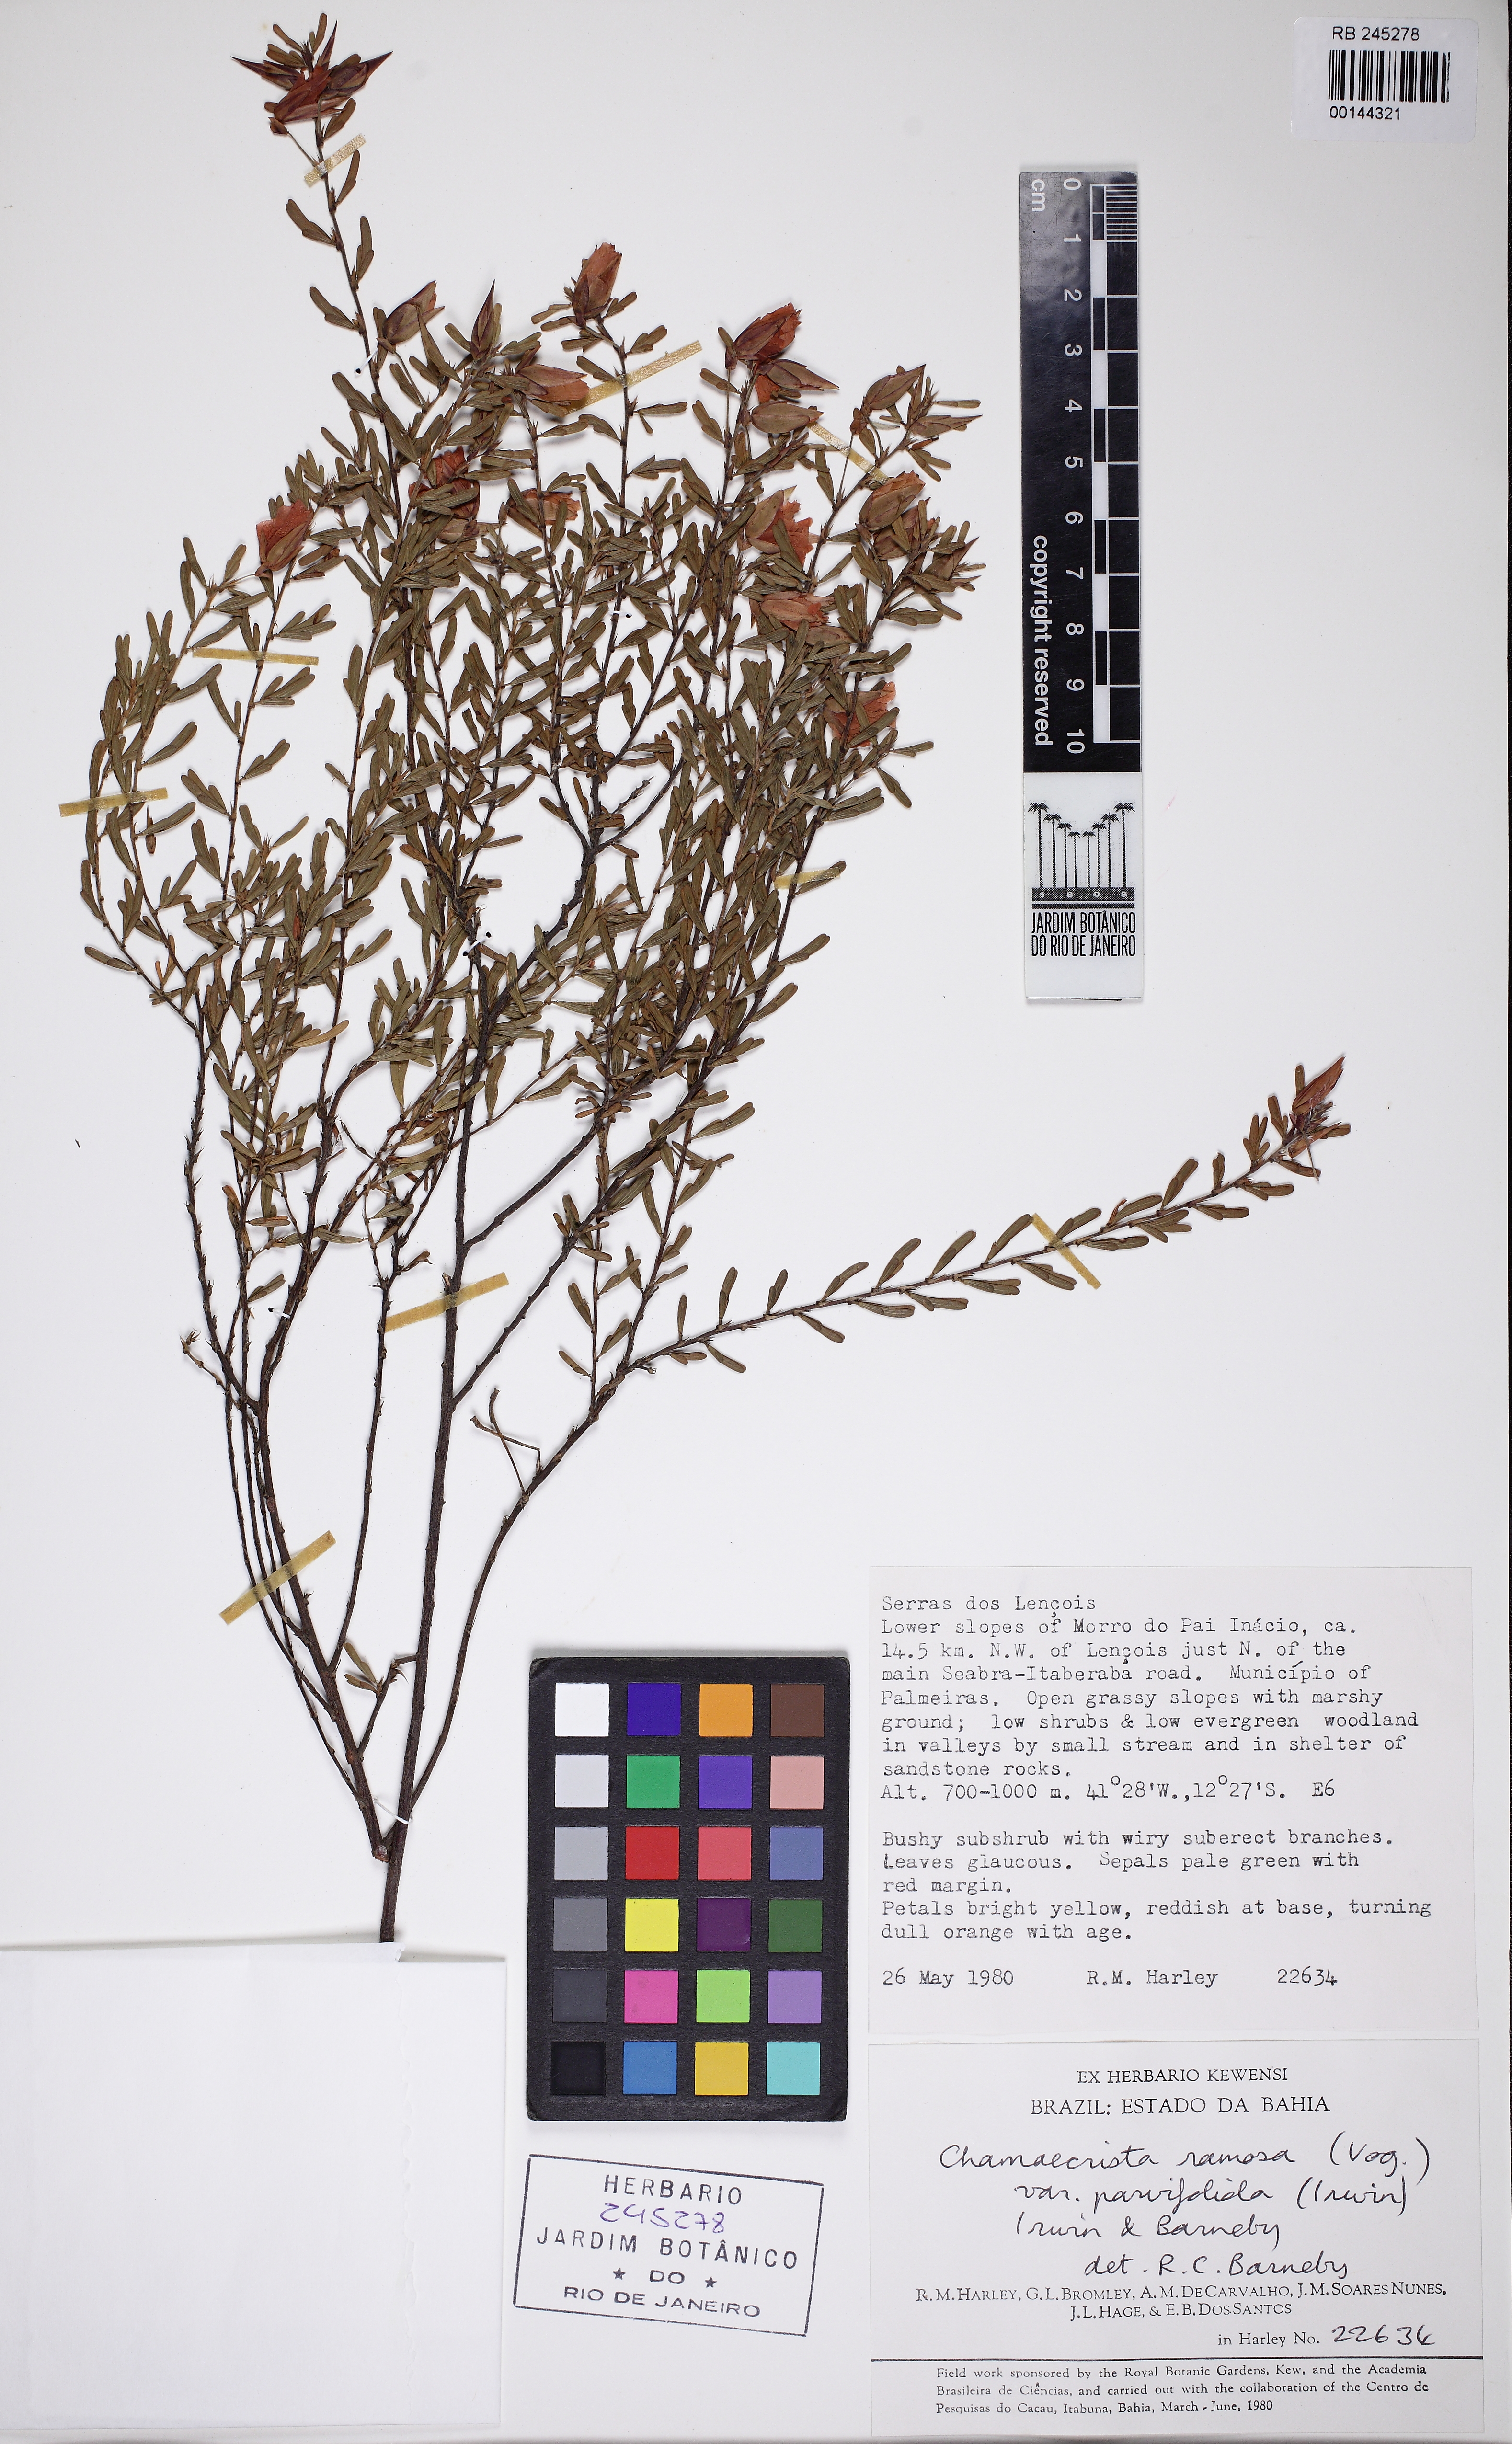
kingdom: Plantae
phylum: Tracheophyta
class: Magnoliopsida
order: Fabales
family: Fabaceae
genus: Chamaecrista
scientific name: Chamaecrista ramosa
